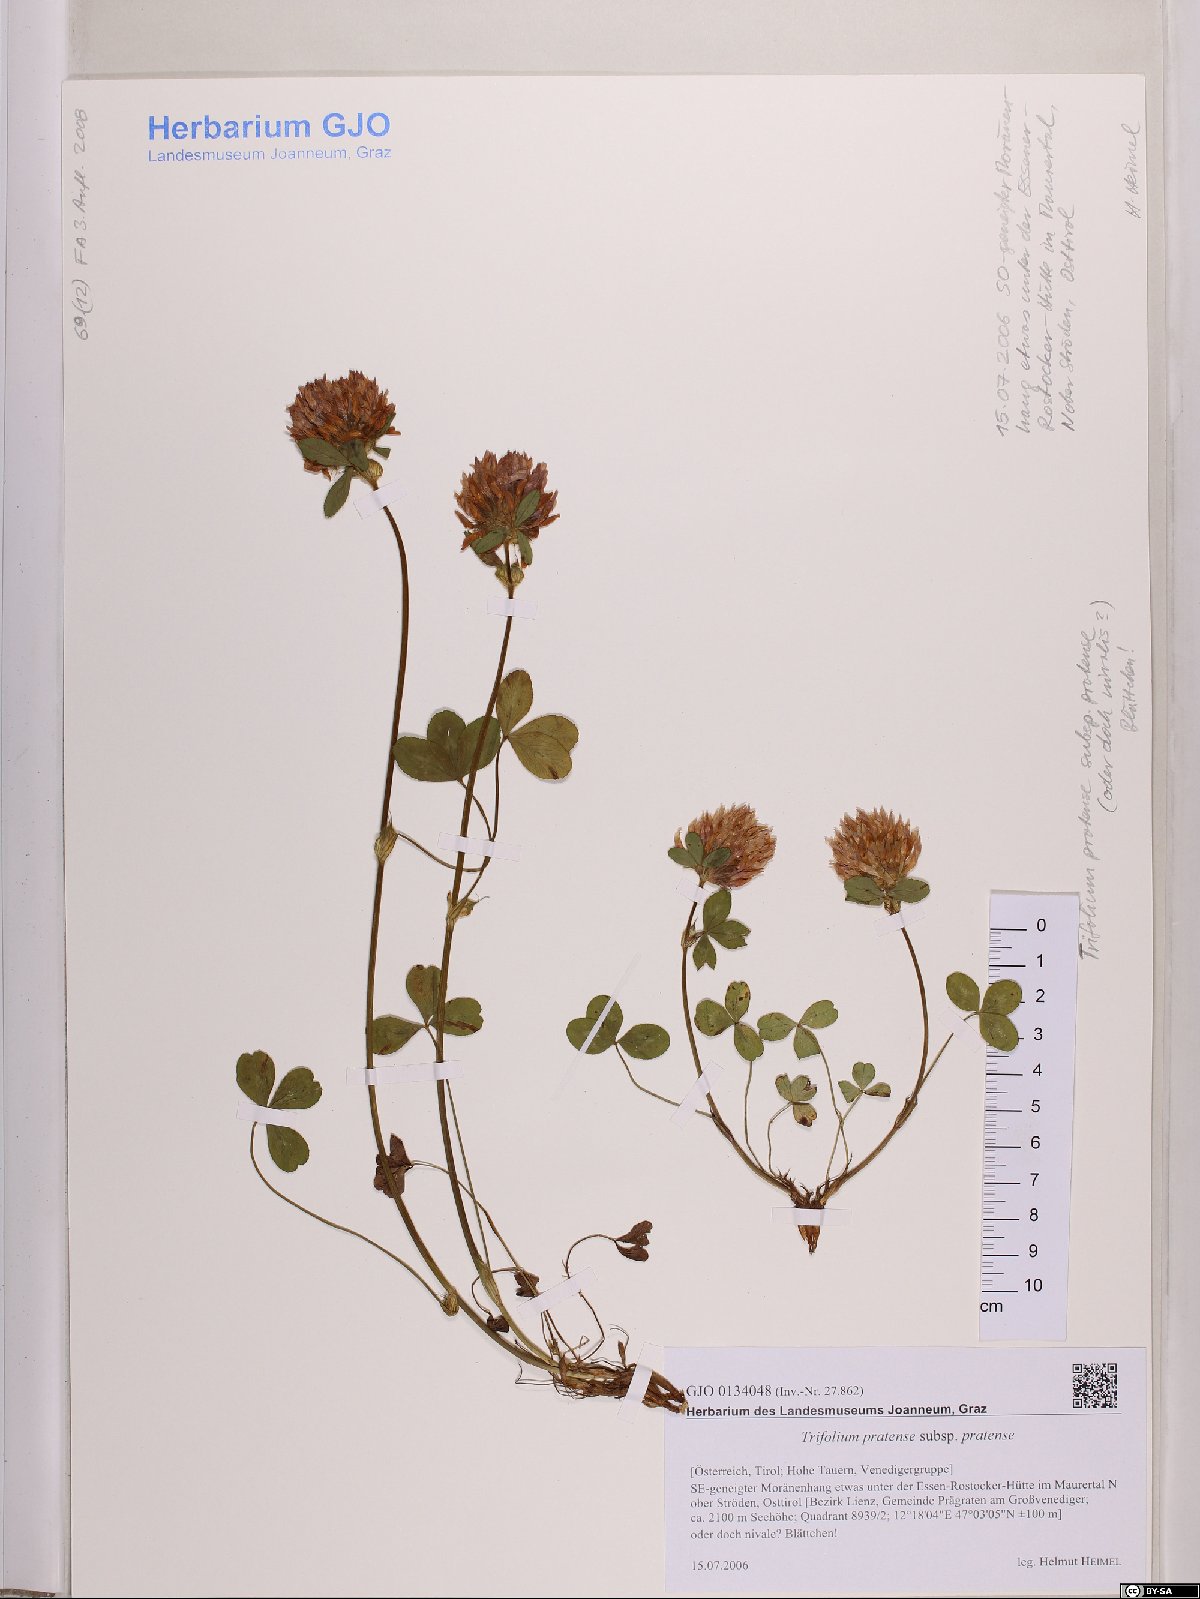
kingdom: Plantae
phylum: Tracheophyta
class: Magnoliopsida
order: Fabales
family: Fabaceae
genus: Trifolium
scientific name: Trifolium pratense
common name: Red clover
